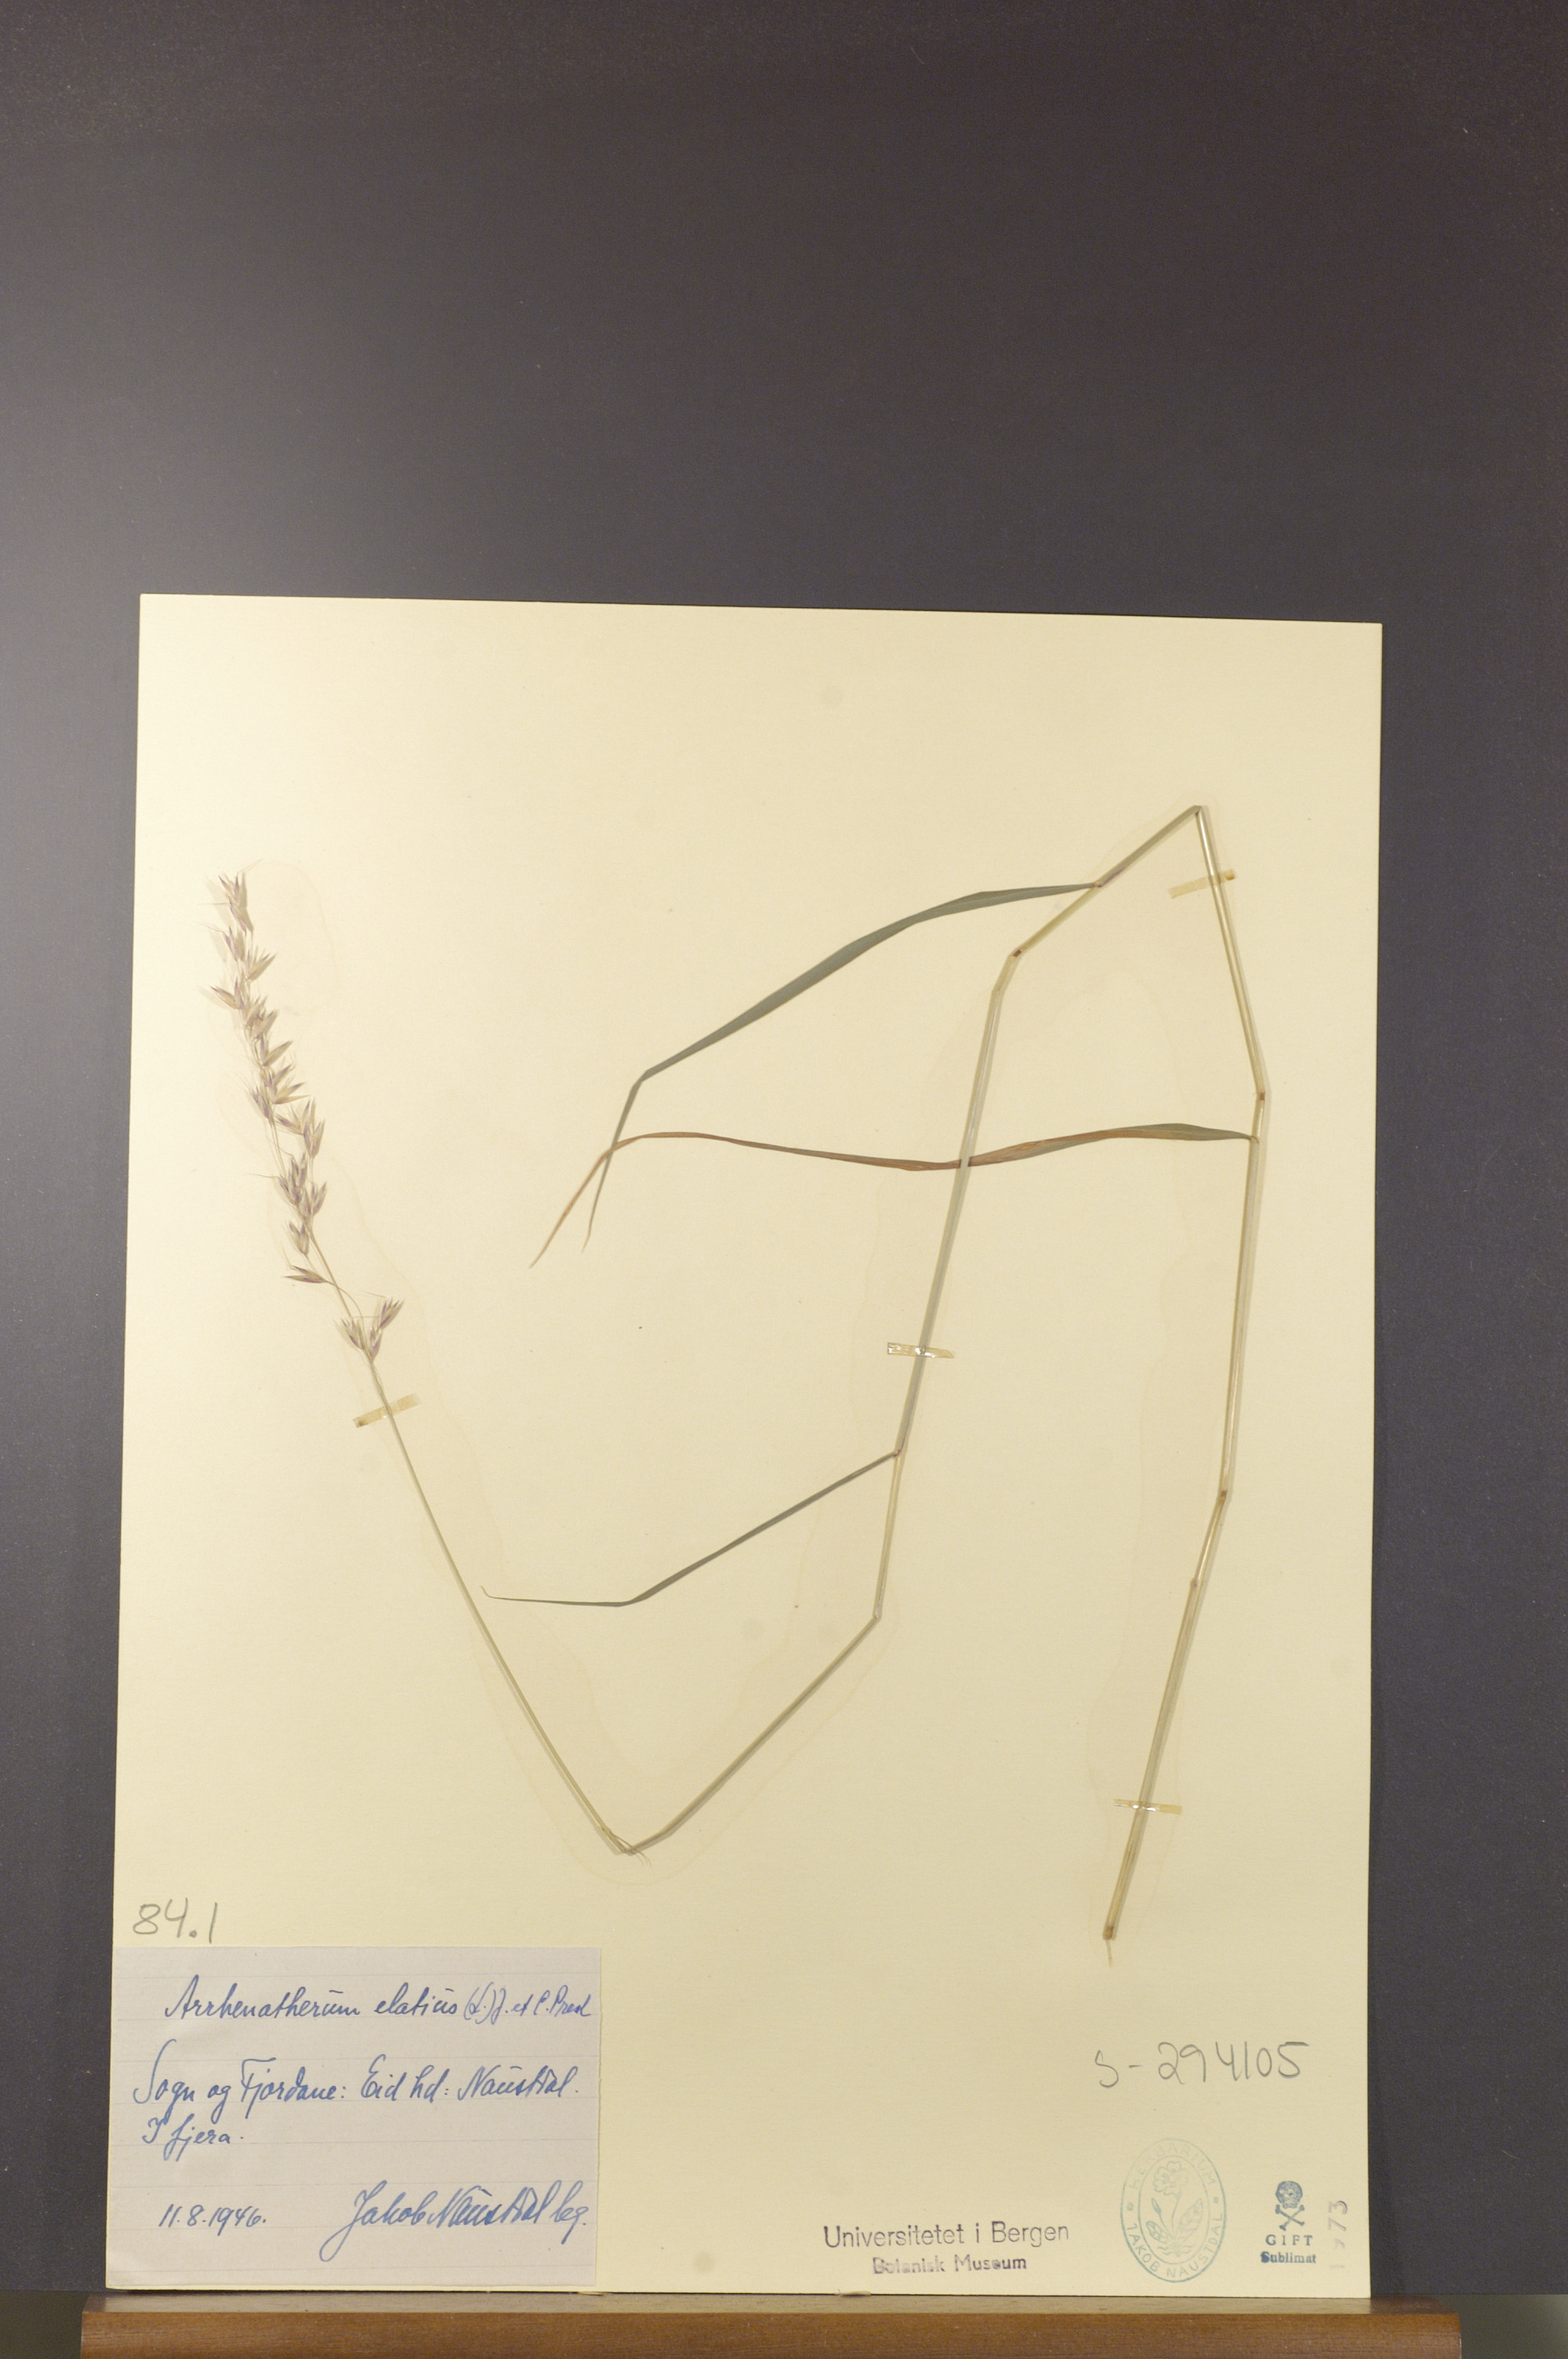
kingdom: Plantae
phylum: Tracheophyta
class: Liliopsida
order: Poales
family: Poaceae
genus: Arrhenatherum
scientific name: Arrhenatherum elatius
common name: Tall oatgrass
